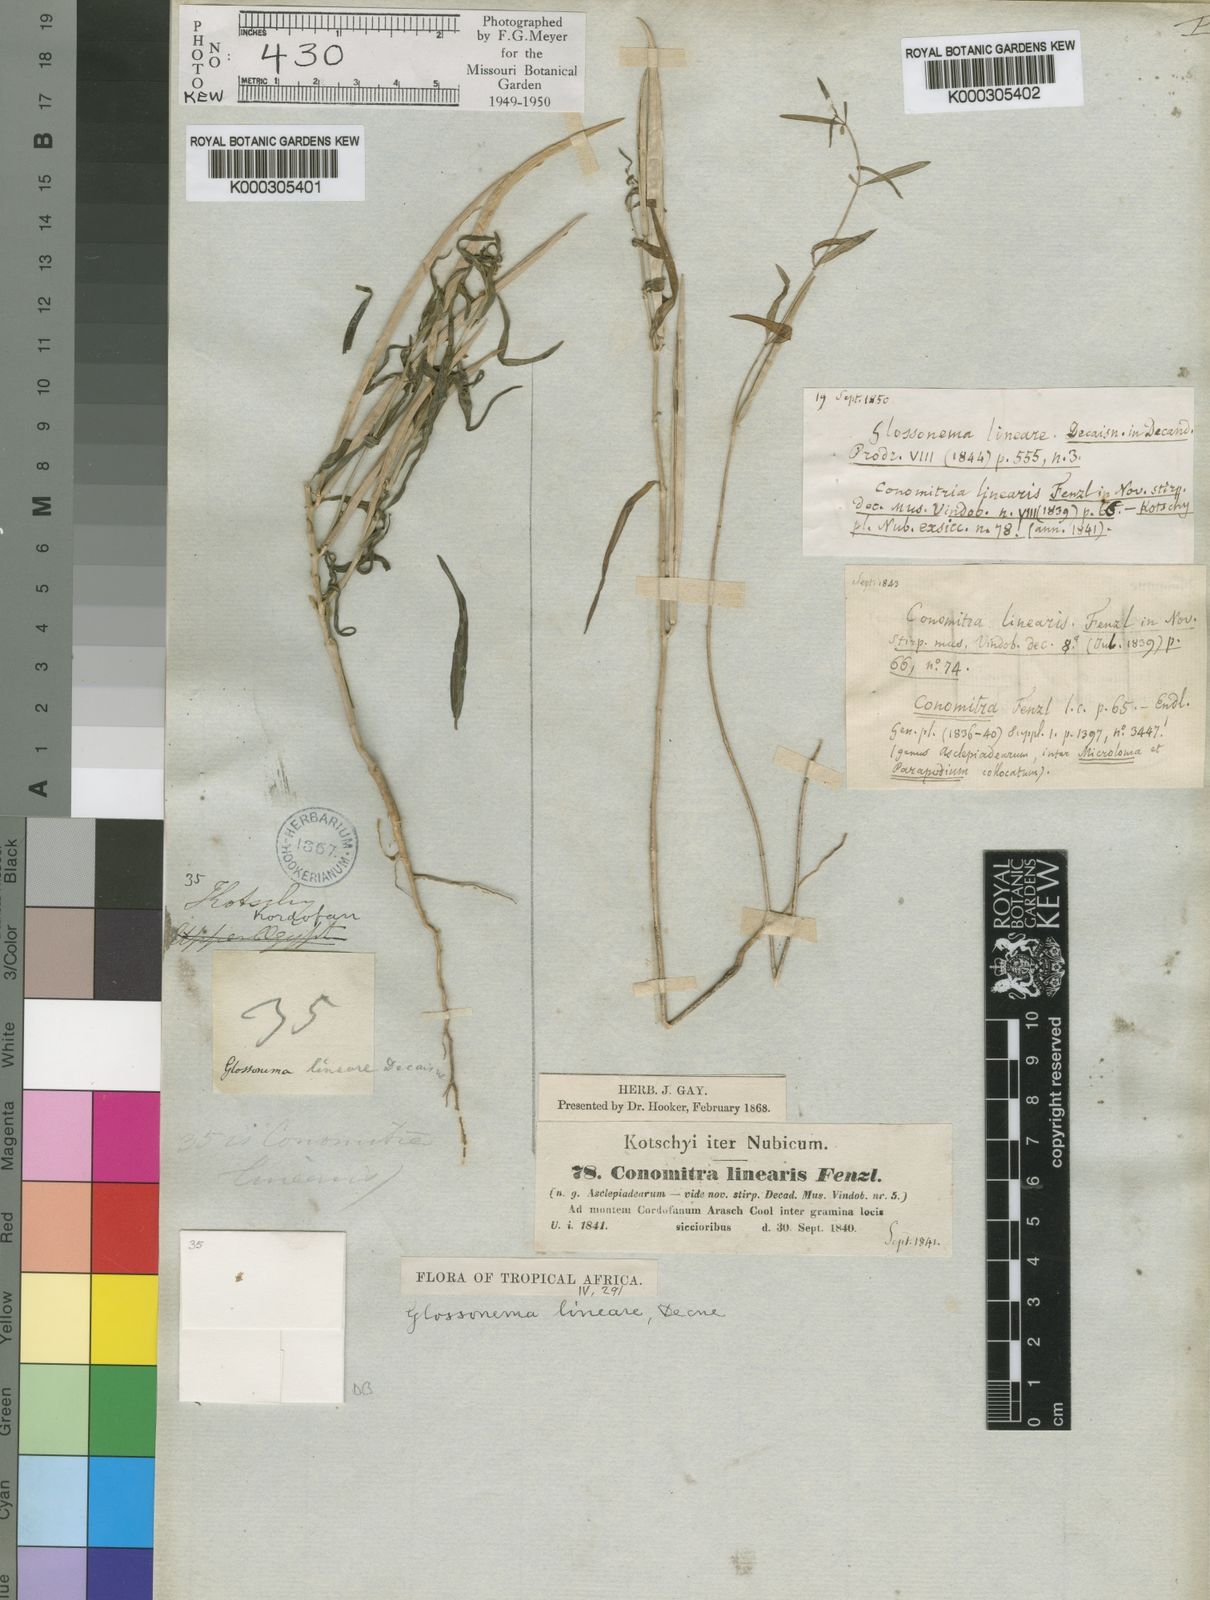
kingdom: Plantae
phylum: Tracheophyta
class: Magnoliopsida
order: Gentianales
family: Apocynaceae
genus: Conomitra
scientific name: Conomitra linearis
